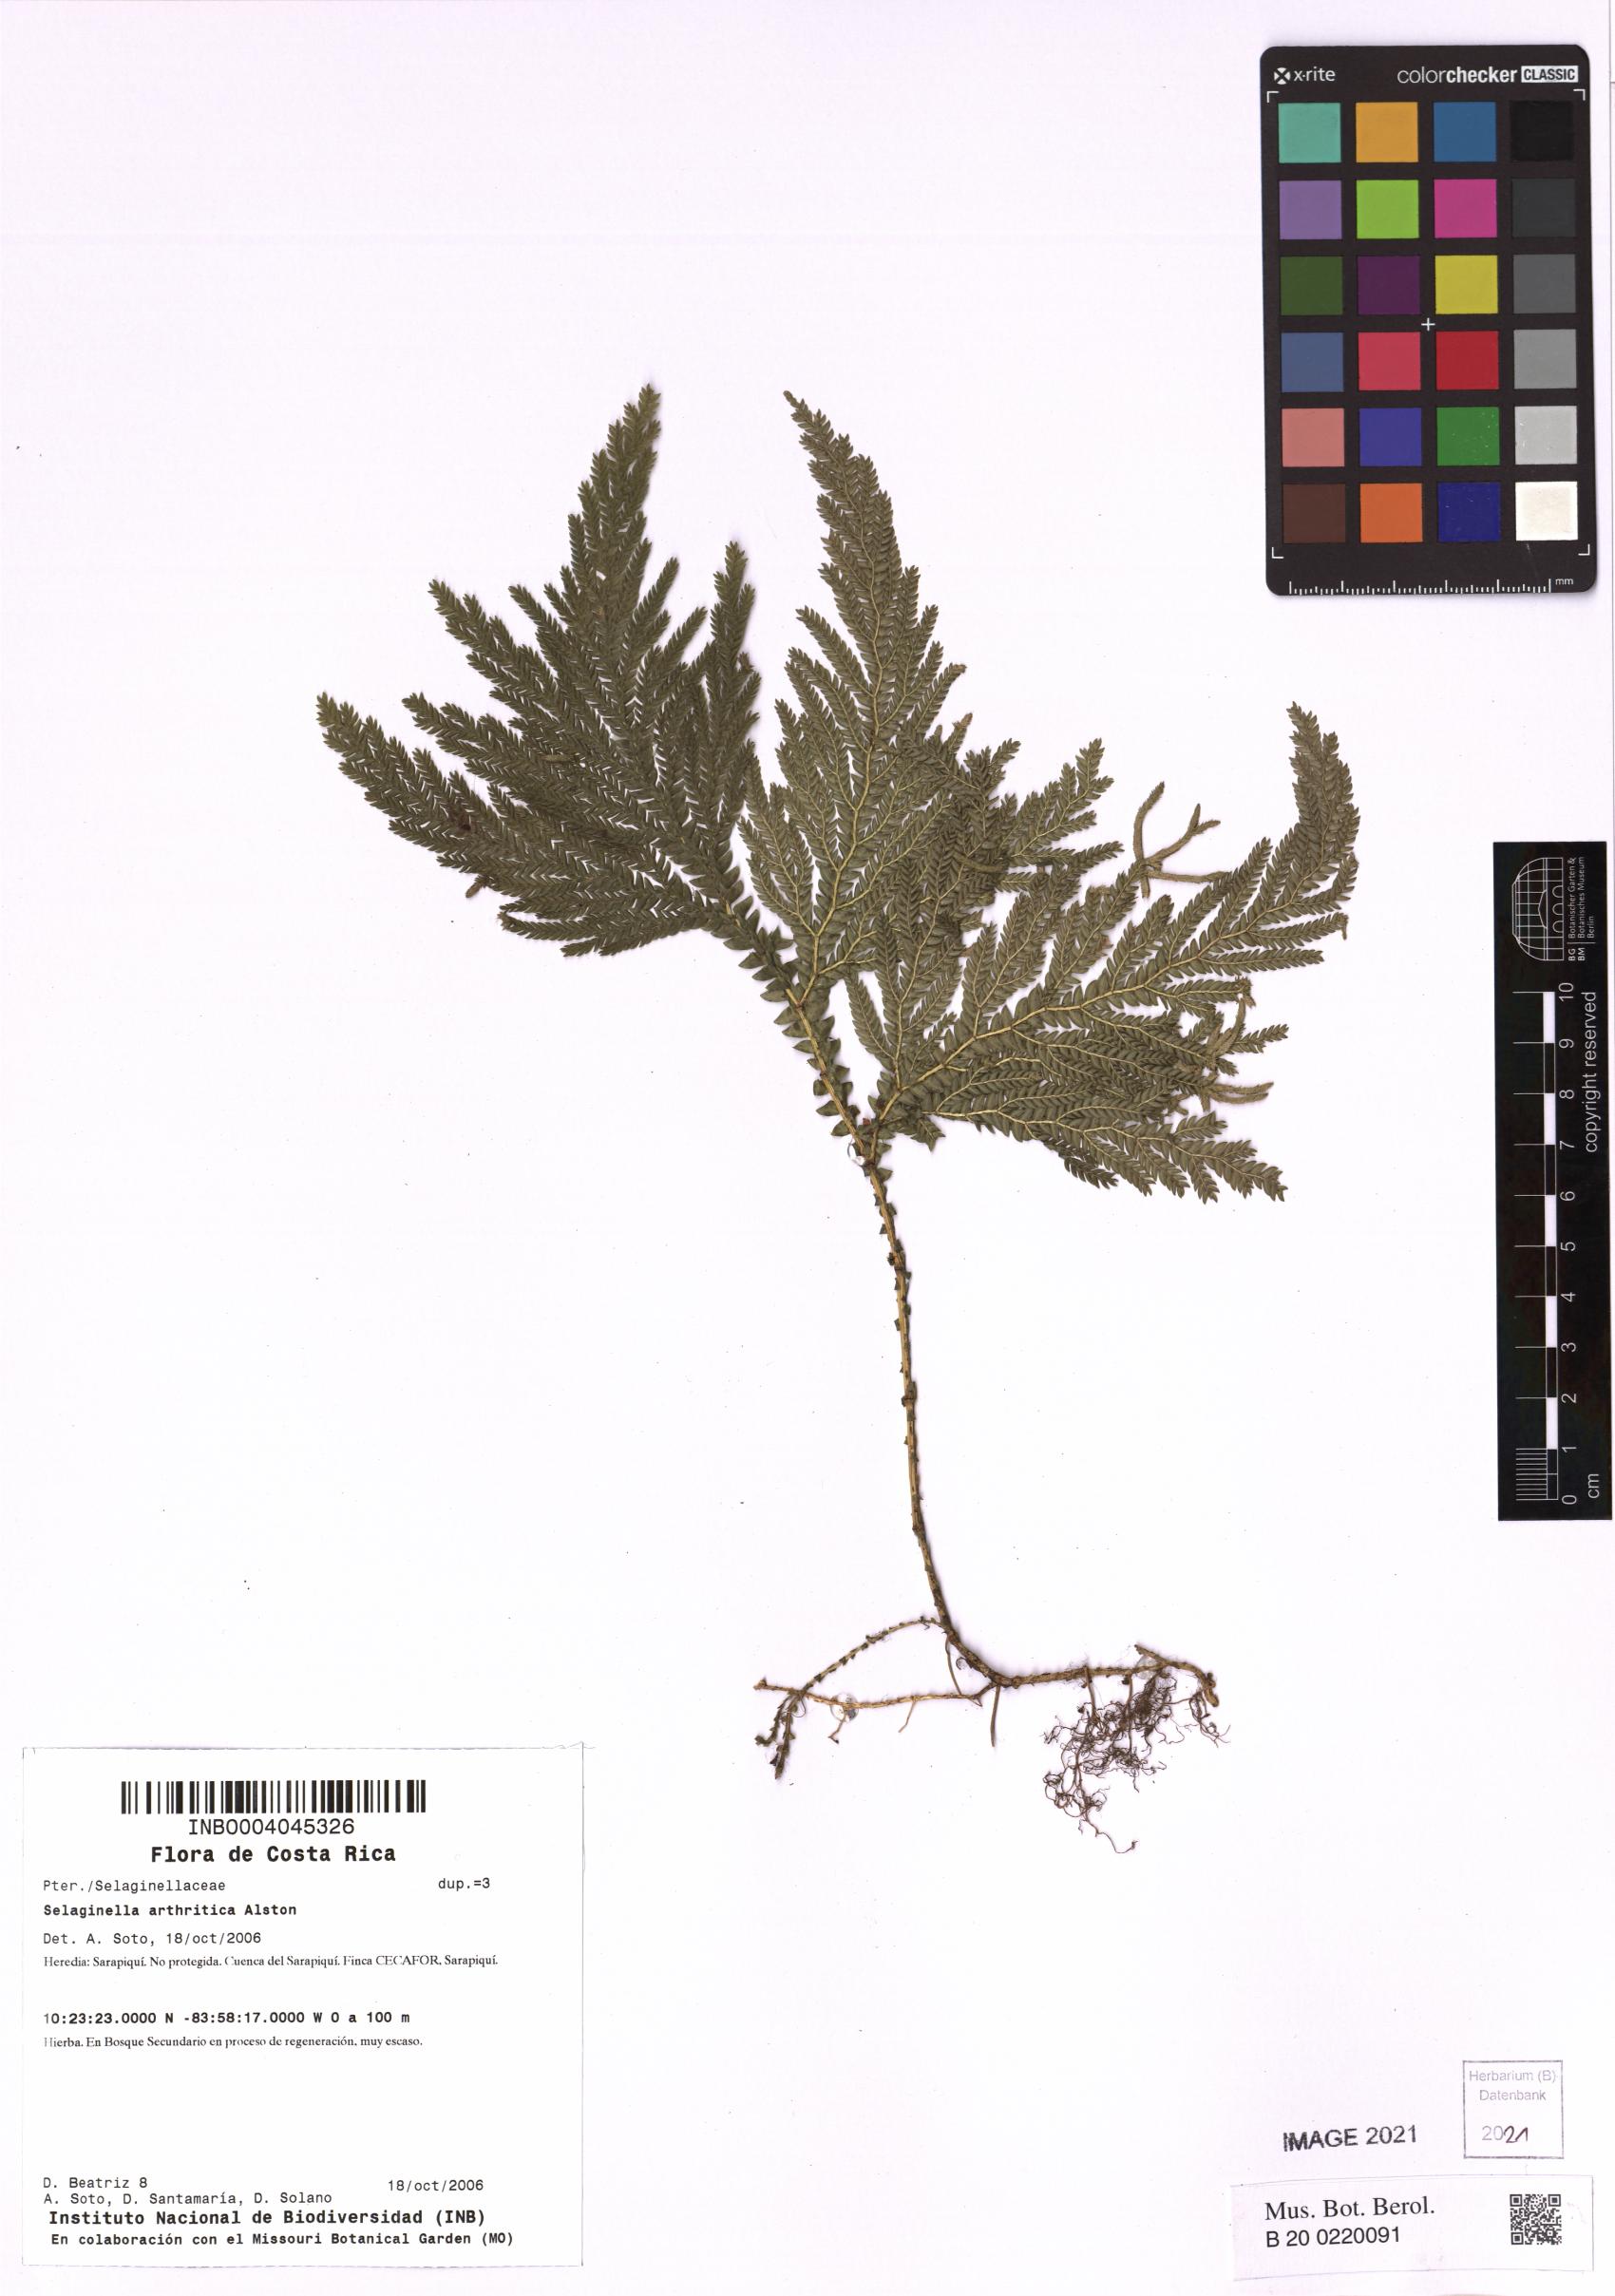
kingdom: Plantae
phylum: Tracheophyta
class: Lycopodiopsida
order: Selaginellales
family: Selaginellaceae
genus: Selaginella
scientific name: Selaginella arthritica
